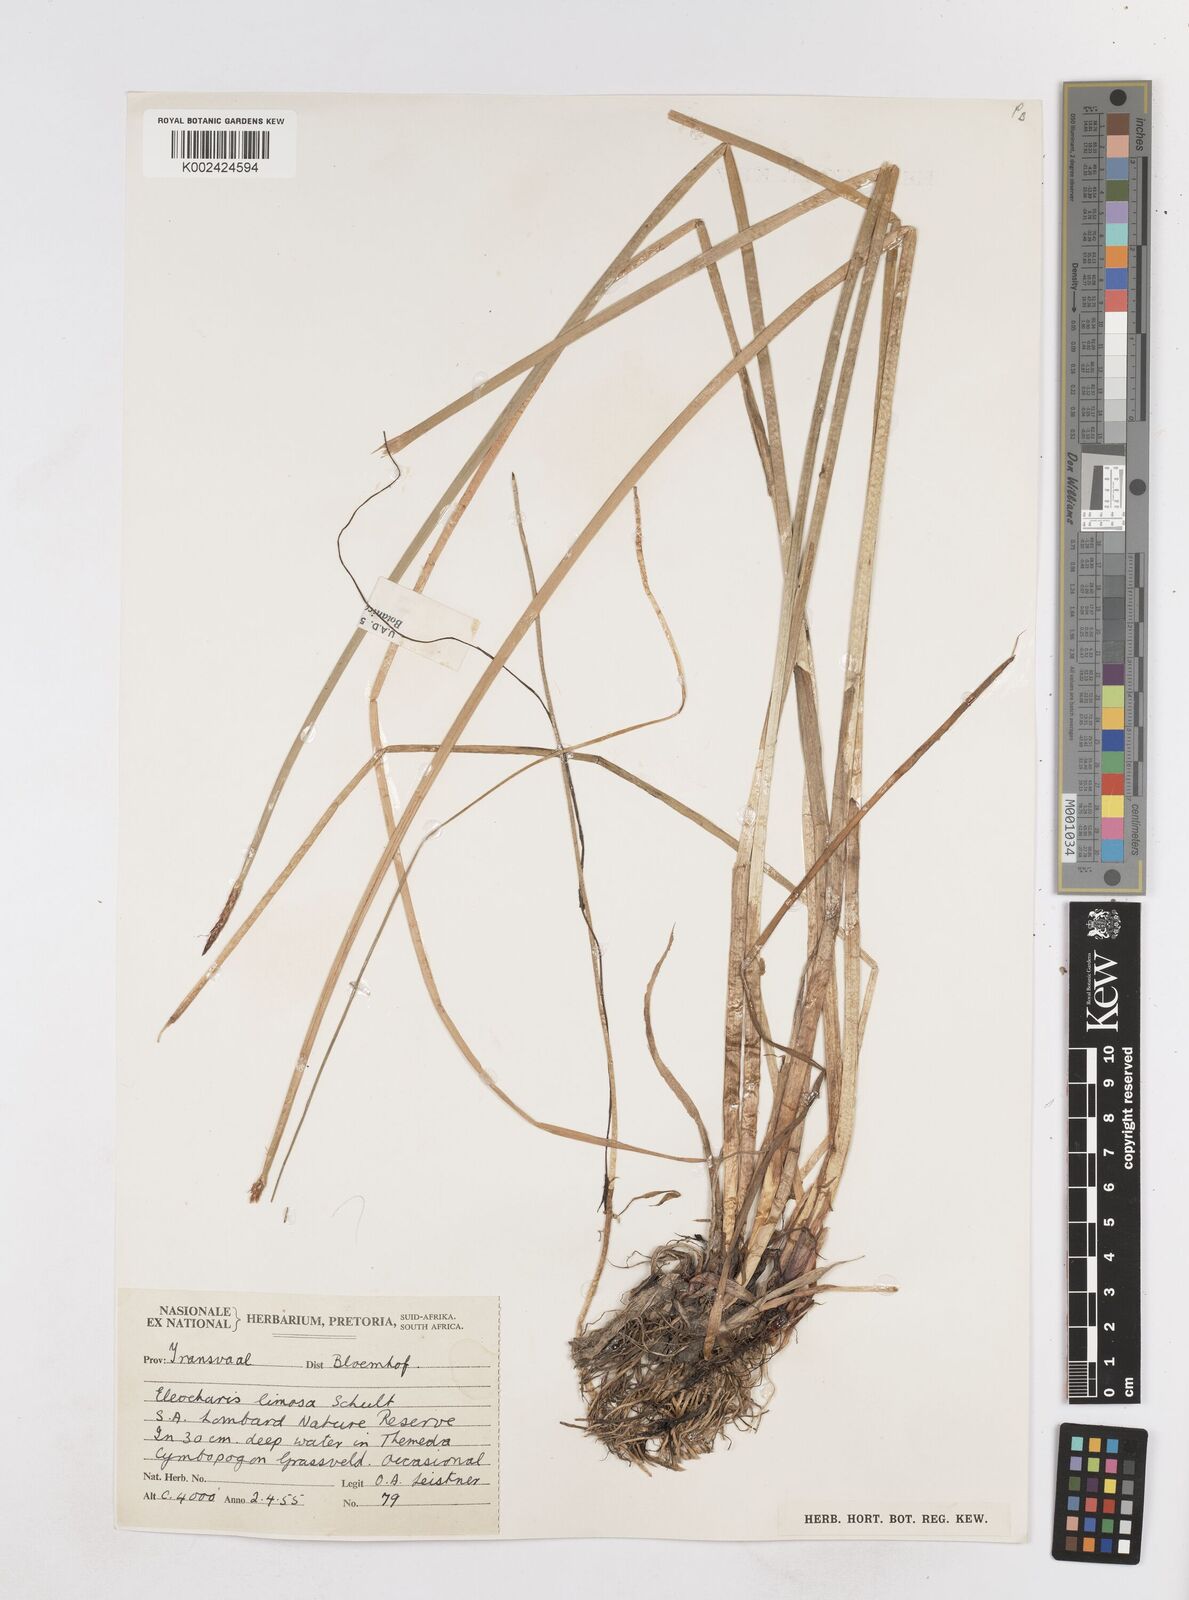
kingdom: Plantae
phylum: Tracheophyta
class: Liliopsida
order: Poales
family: Cyperaceae
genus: Eleocharis
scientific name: Eleocharis limosa
